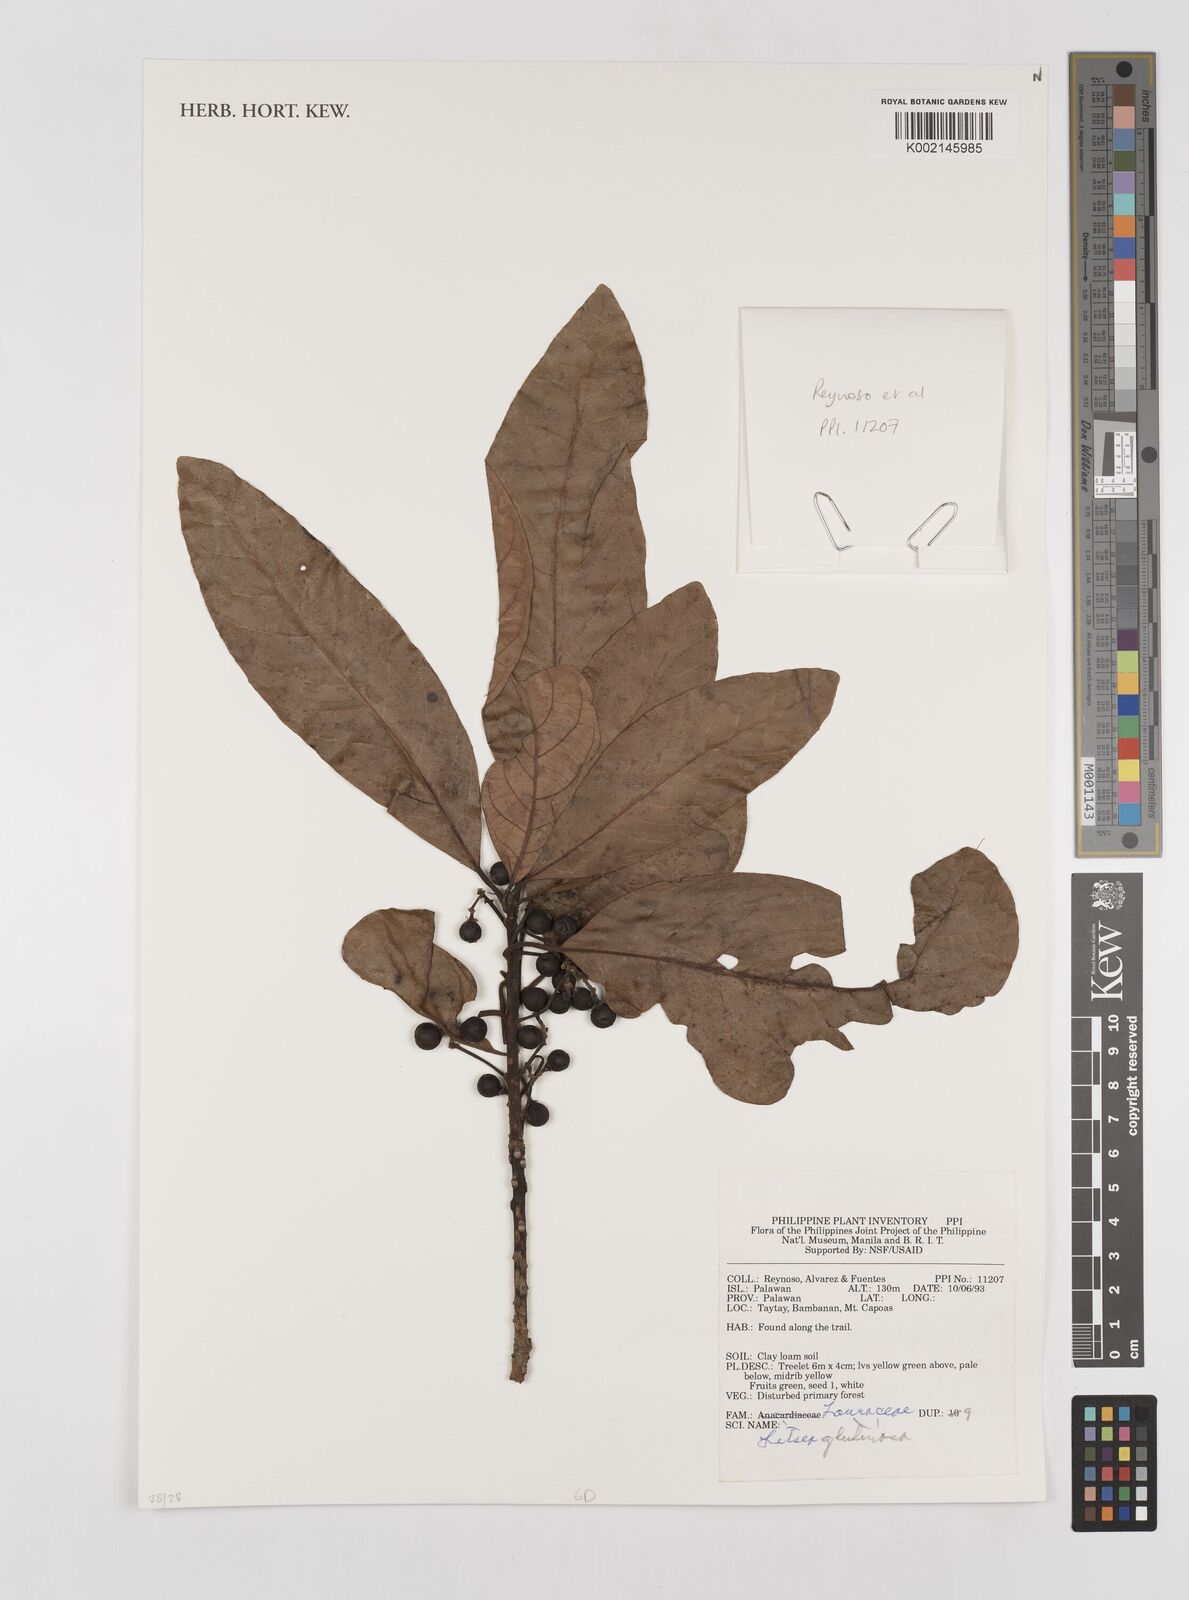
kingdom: Plantae
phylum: Tracheophyta
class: Magnoliopsida
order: Laurales
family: Lauraceae
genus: Litsea
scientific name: Litsea glutinosa
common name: Indian-laurel
